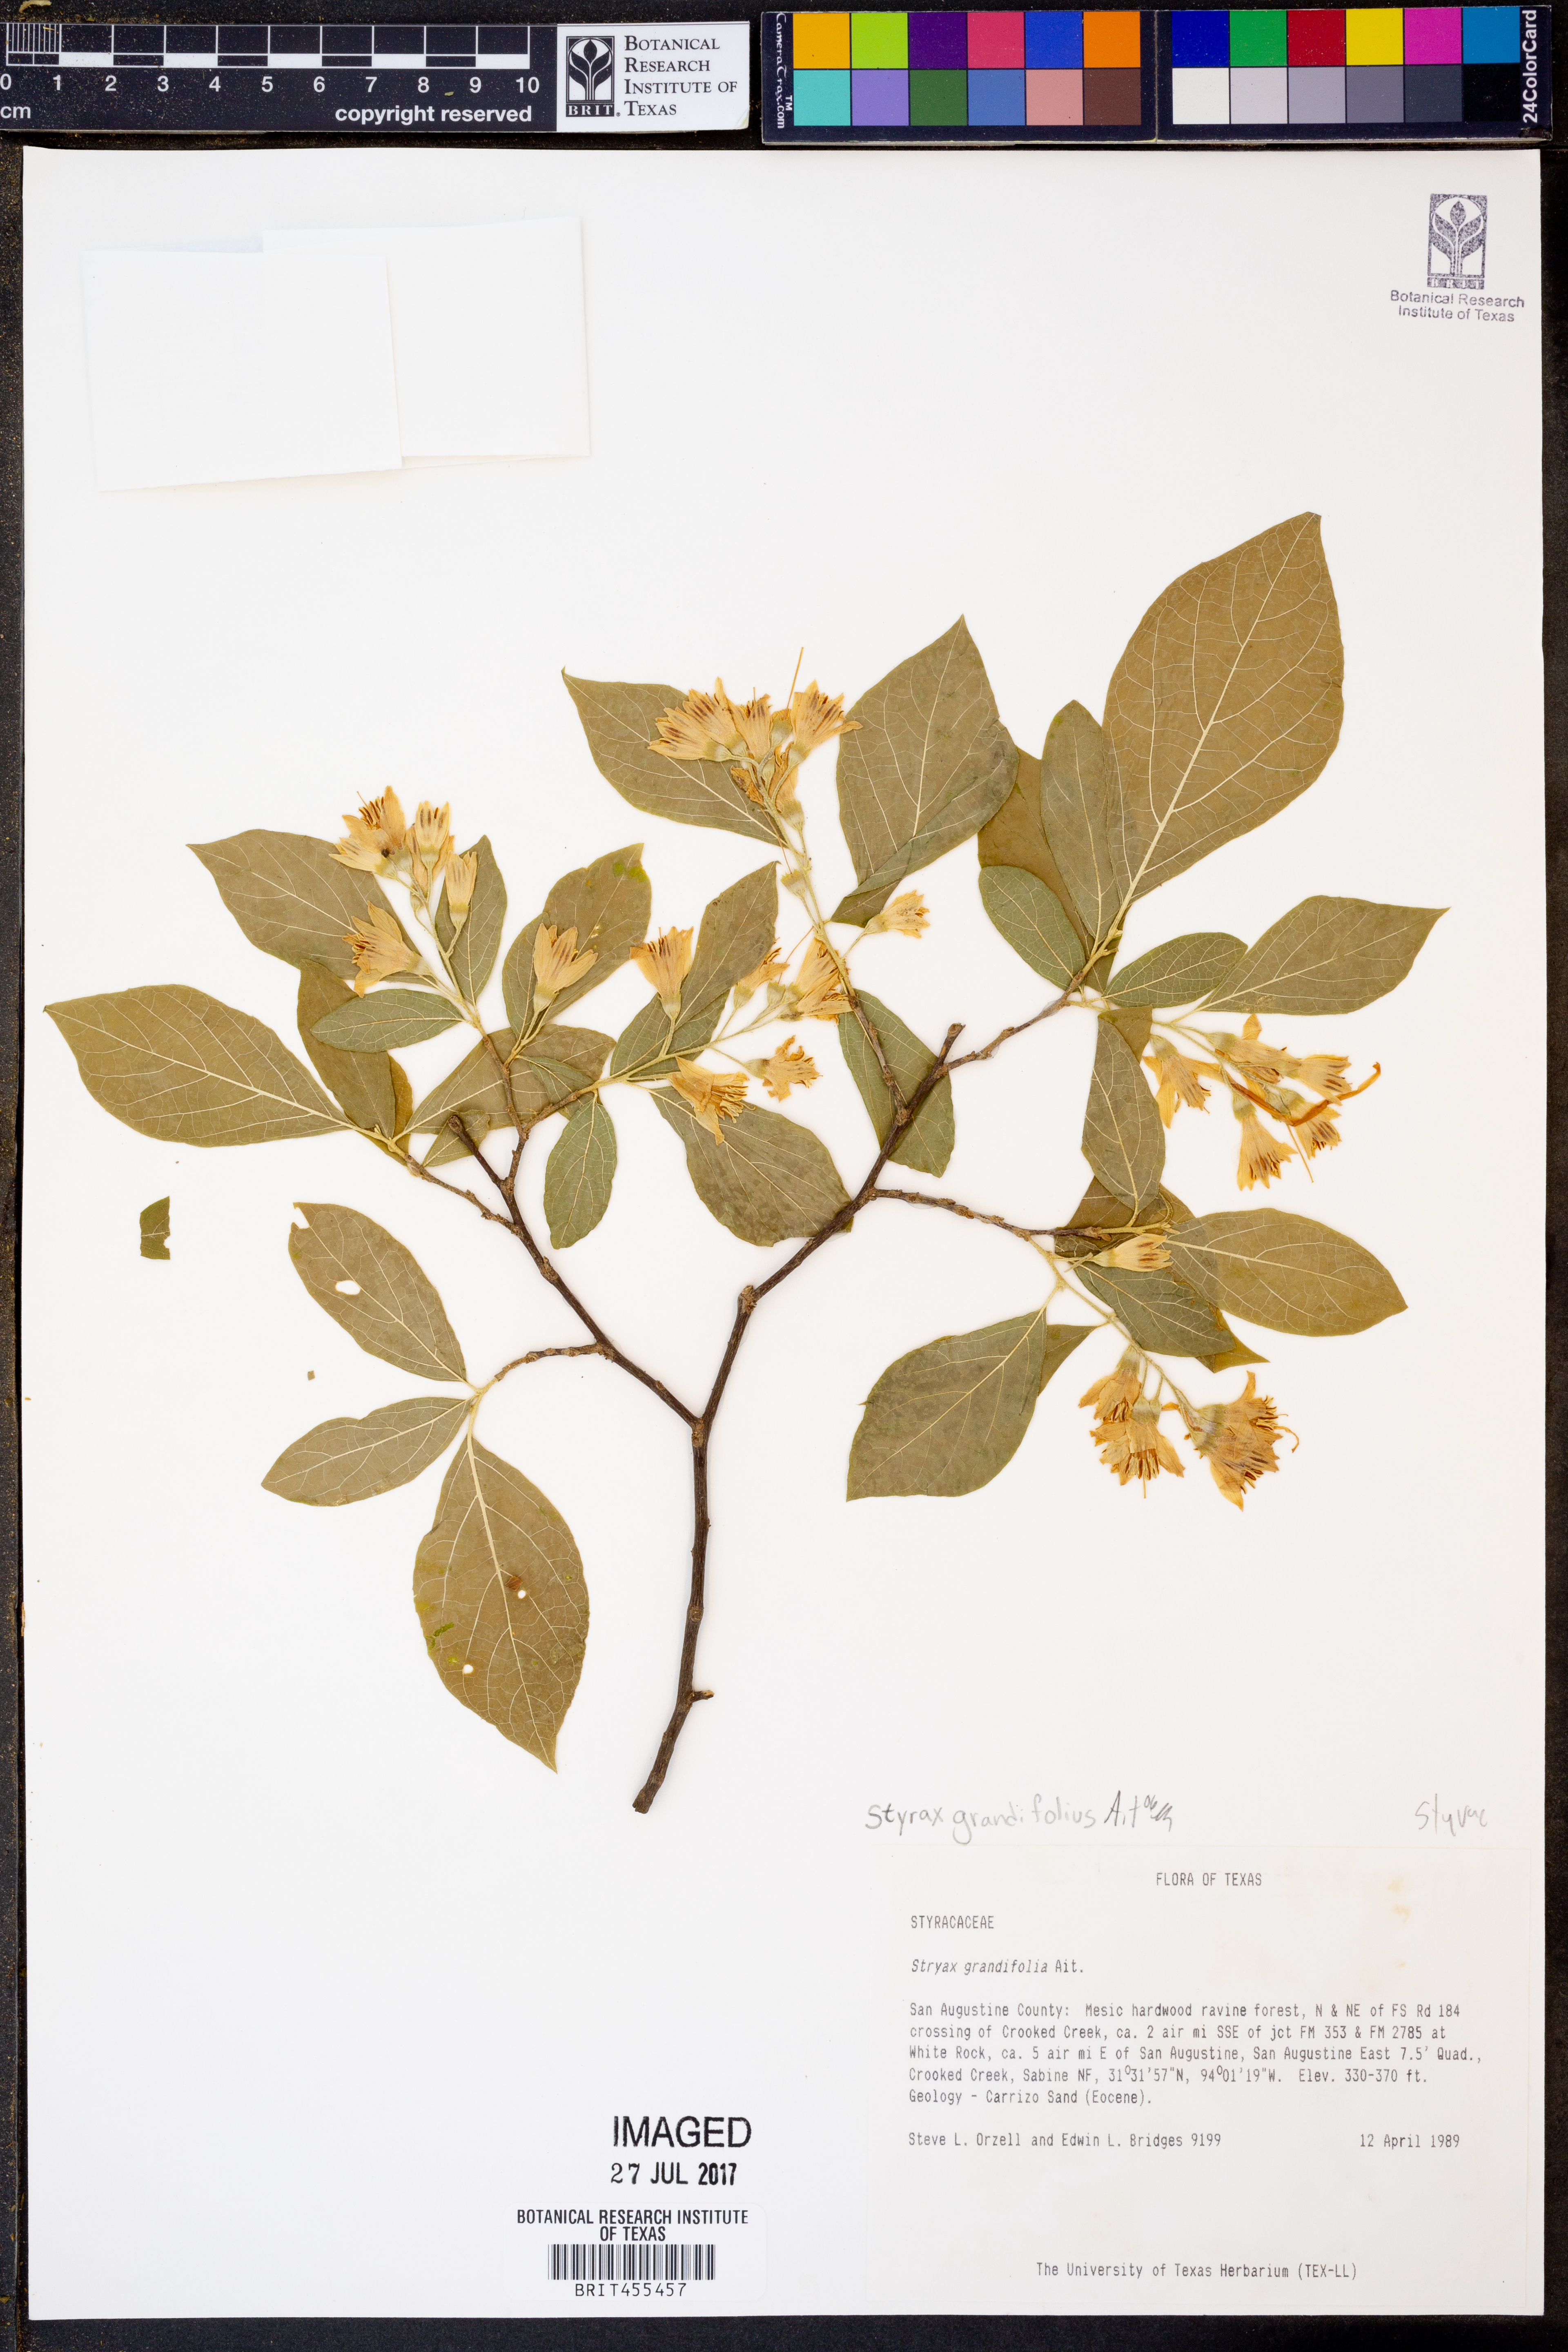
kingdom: Plantae
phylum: Tracheophyta
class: Magnoliopsida
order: Ericales
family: Styracaceae
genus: Styrax
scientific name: Styrax grandifolius
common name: Big-leaf snowbell
